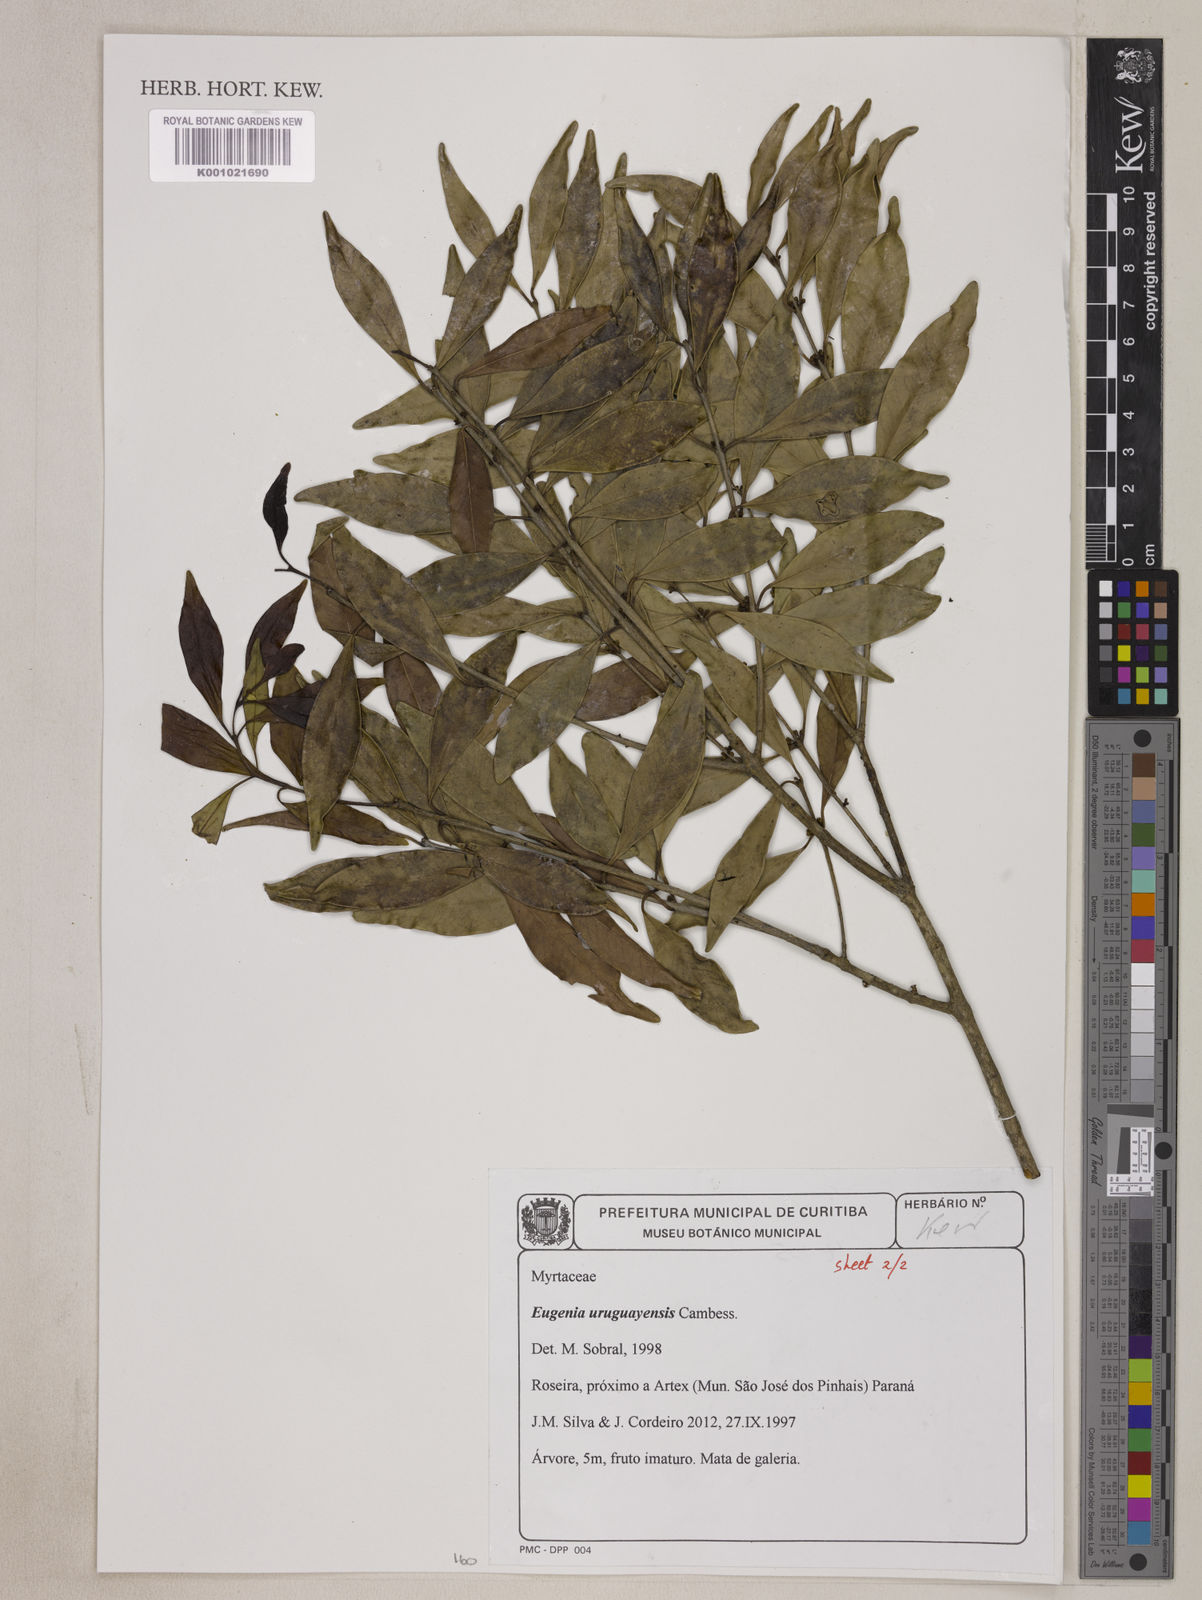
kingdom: Plantae
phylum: Tracheophyta
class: Magnoliopsida
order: Myrtales
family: Myrtaceae
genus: Eugenia
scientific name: Eugenia uruguayensis
